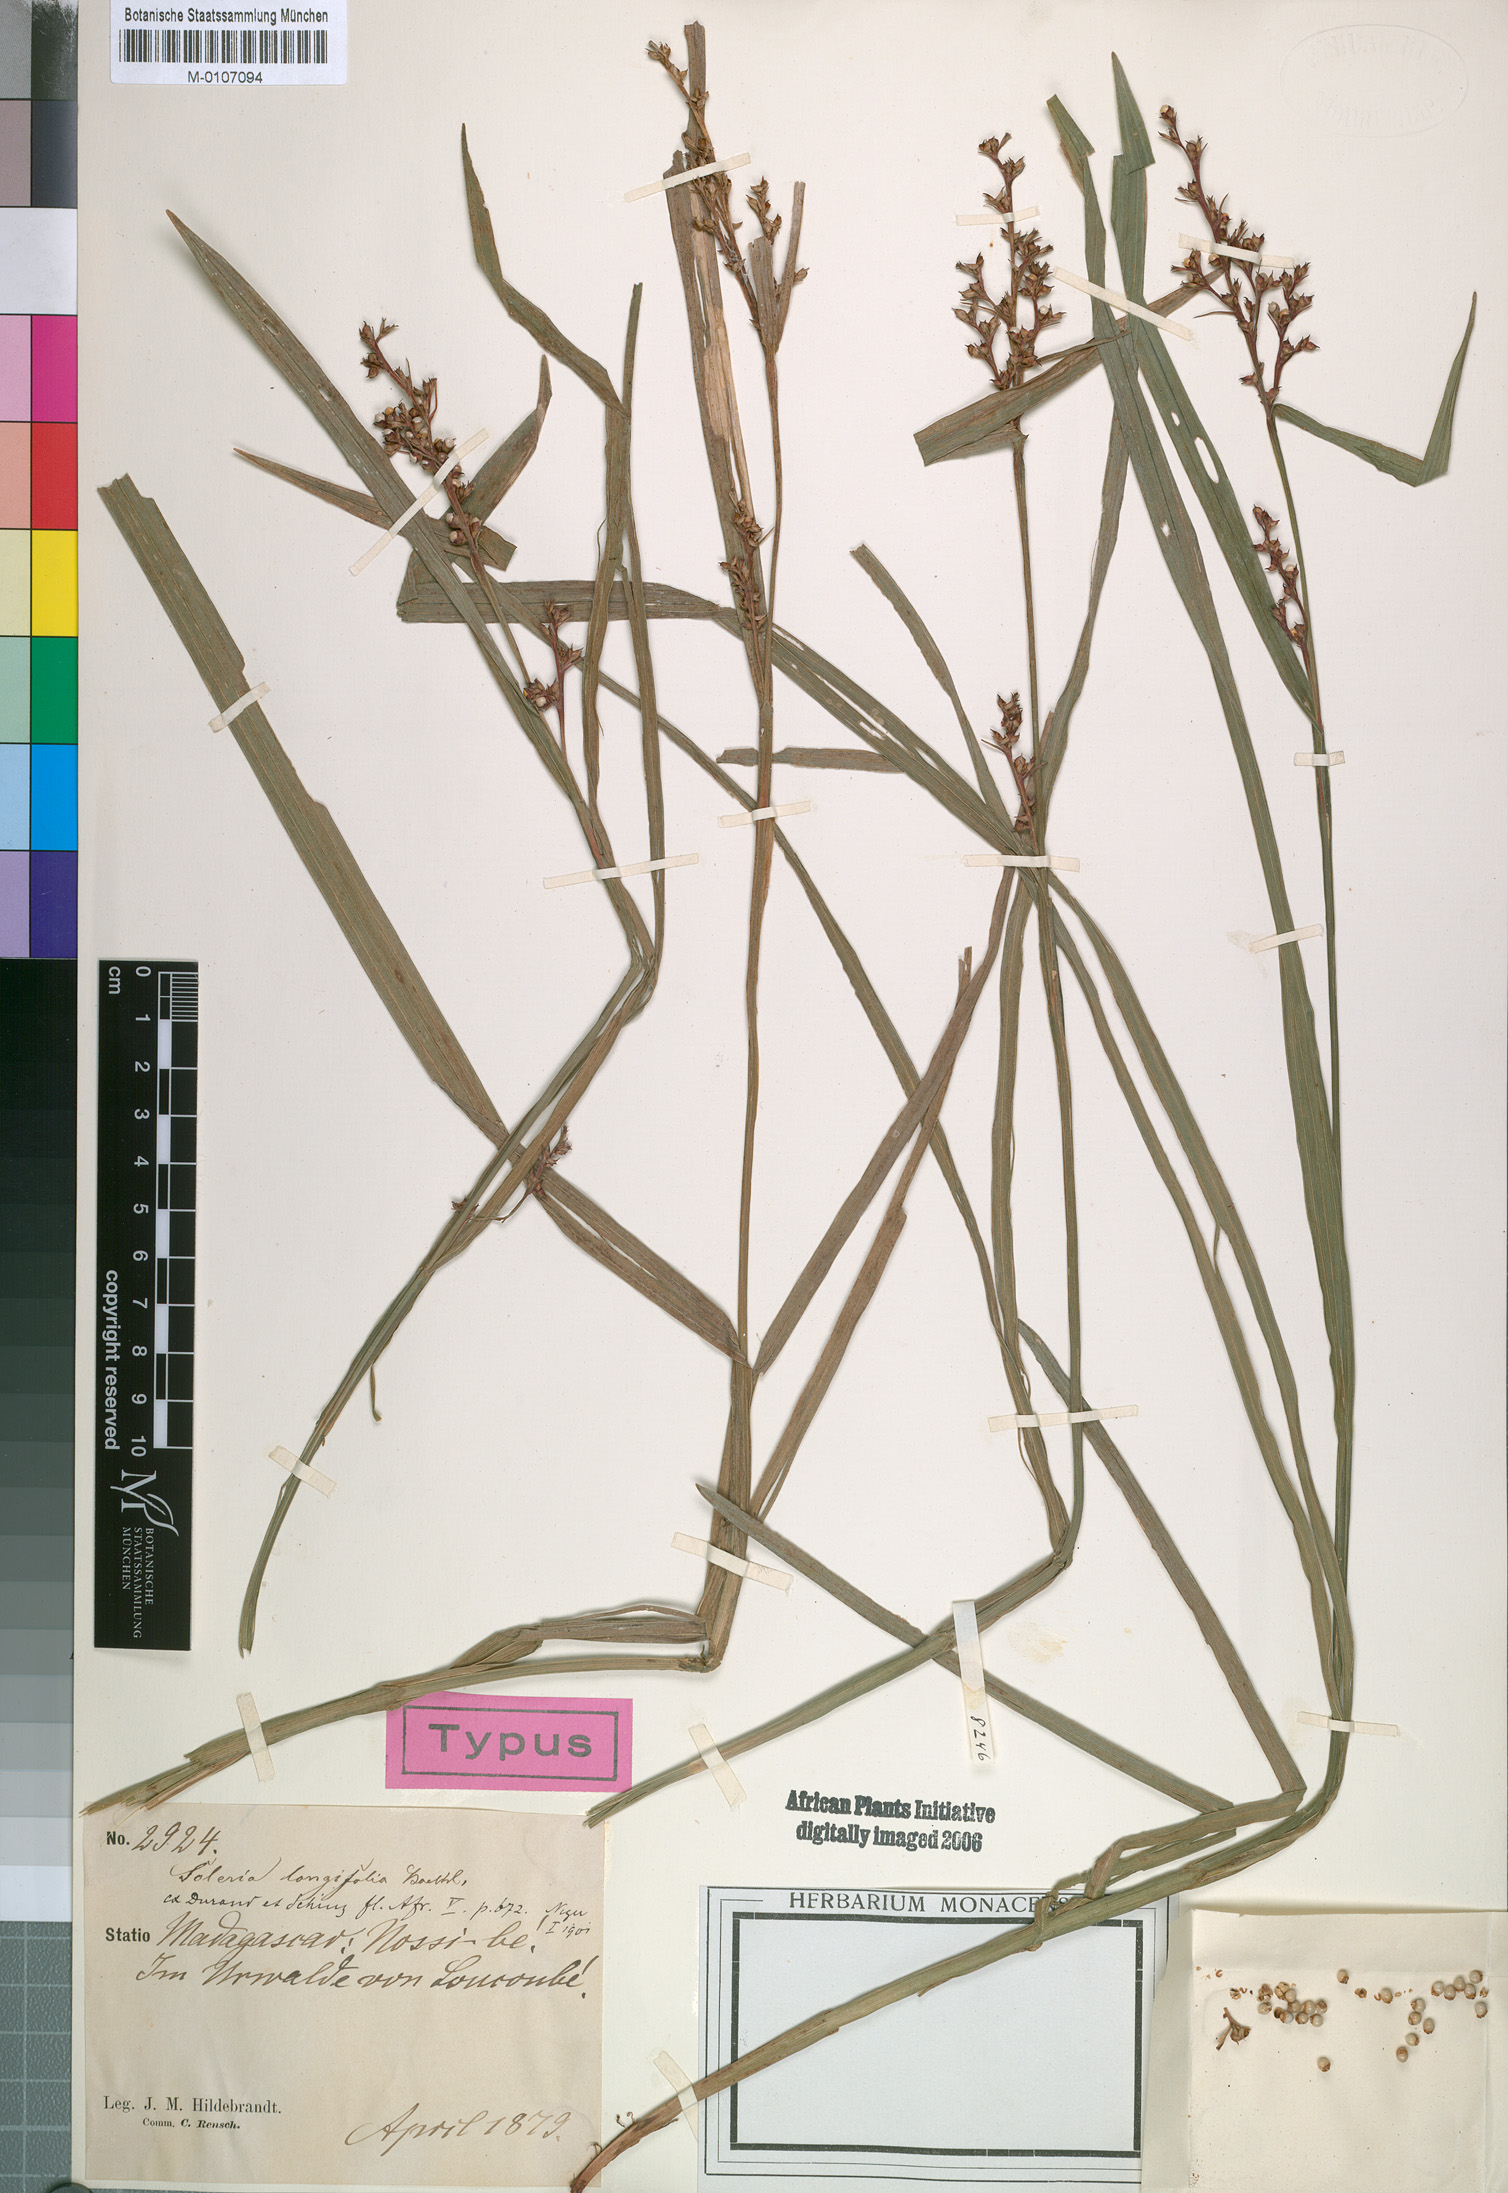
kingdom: Plantae
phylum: Tracheophyta
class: Liliopsida
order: Poales
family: Cyperaceae
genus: Scleria
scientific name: Scleria gaertneri
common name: Cortadera blanca
